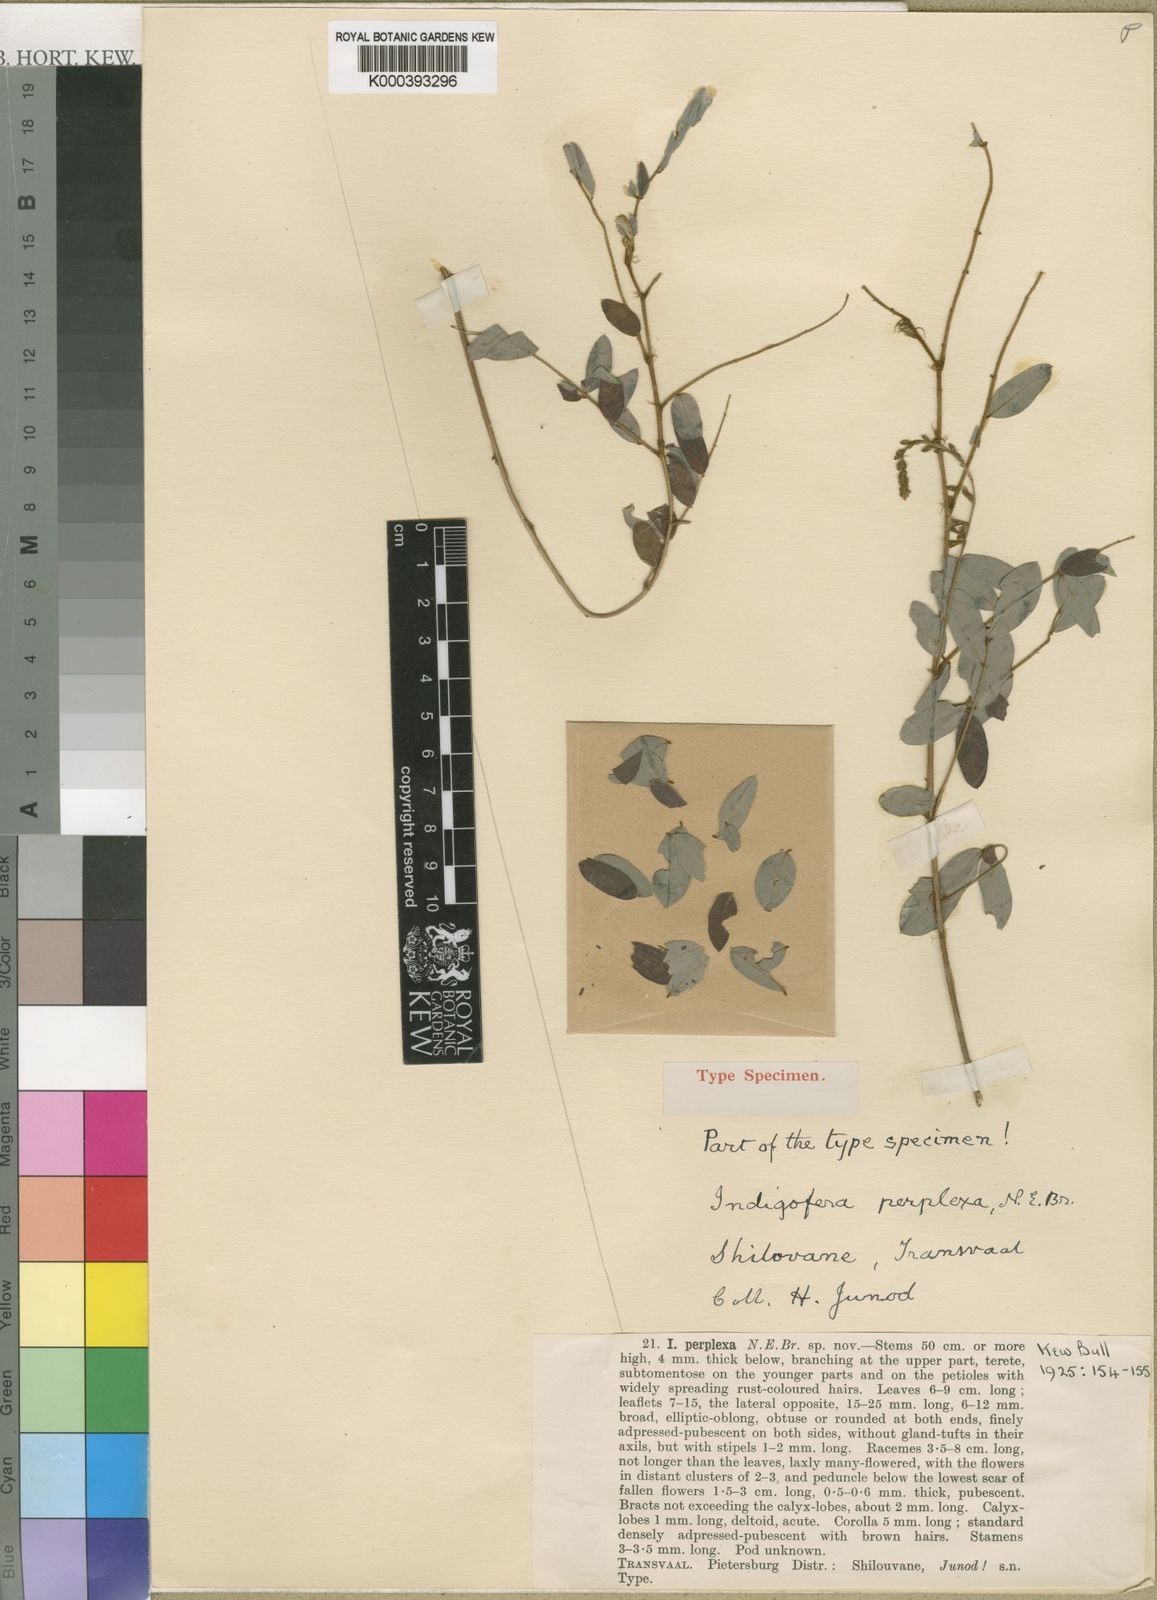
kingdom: Plantae
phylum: Tracheophyta
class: Magnoliopsida
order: Fabales
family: Fabaceae
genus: Indigofera
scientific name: Indigofera swaziensis
